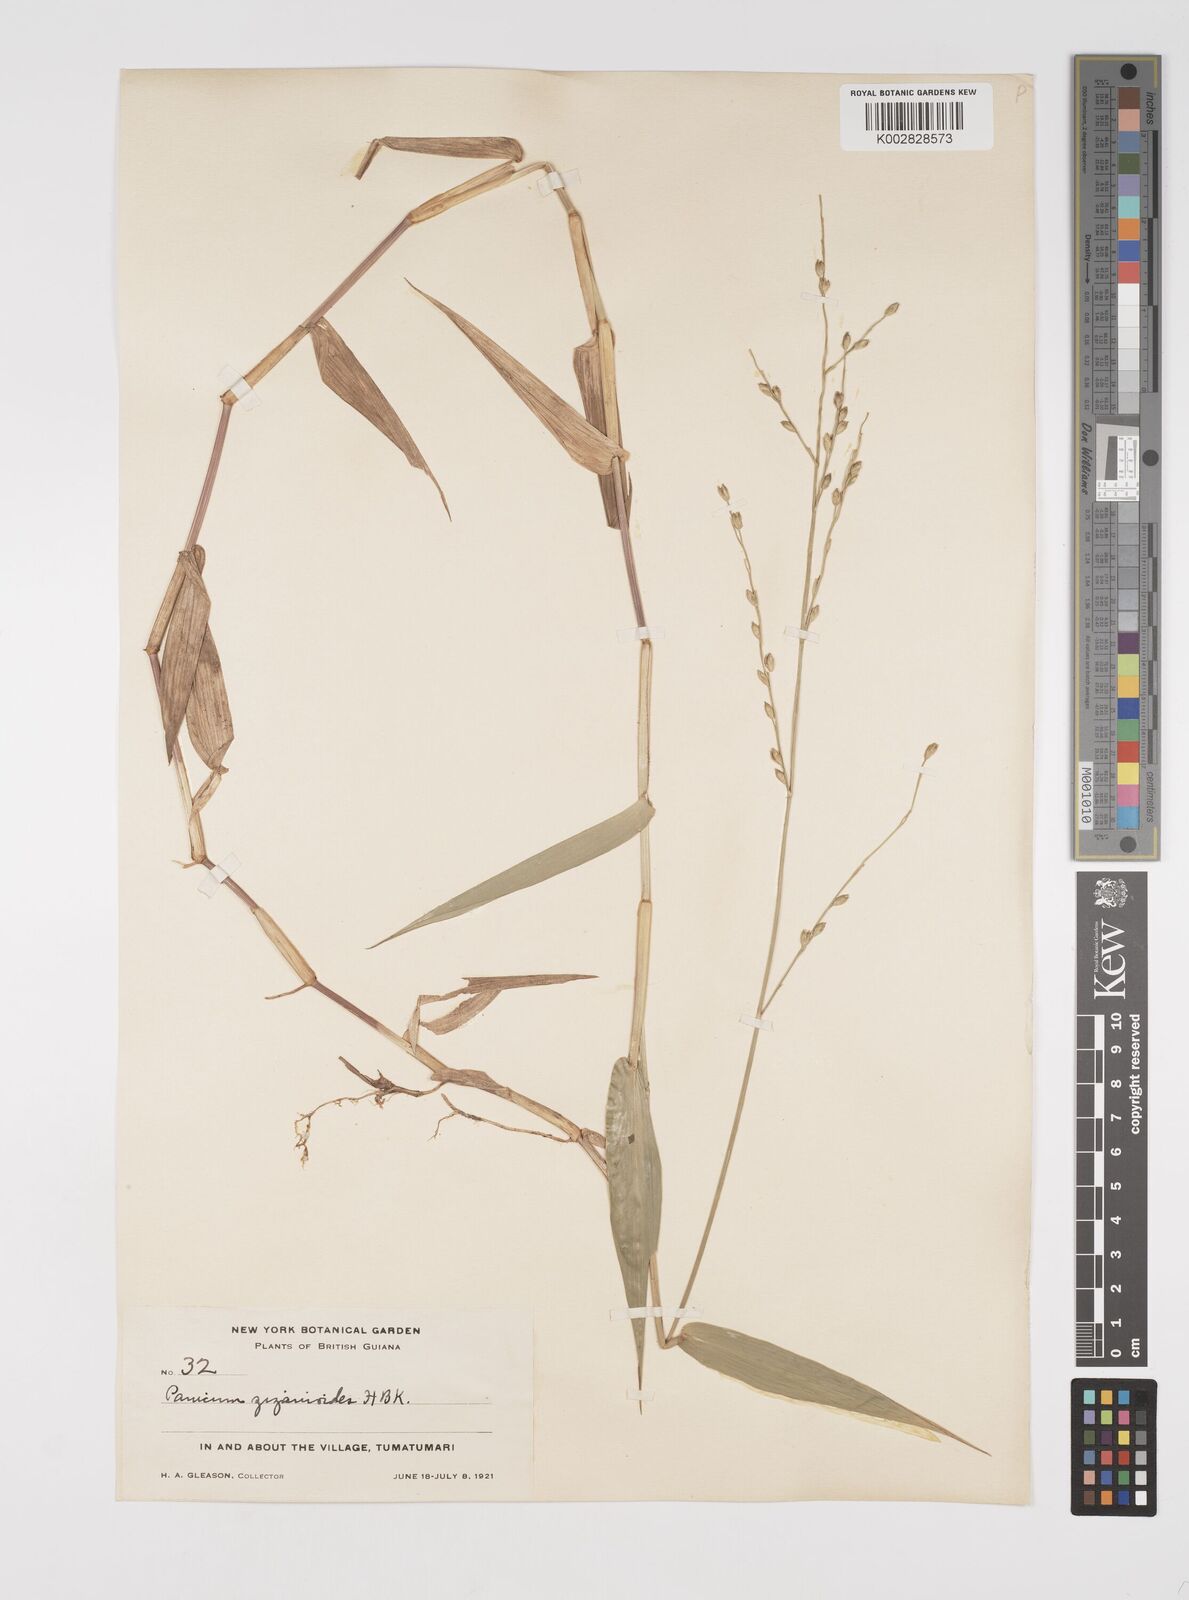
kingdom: Plantae
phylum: Tracheophyta
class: Liliopsida
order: Poales
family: Poaceae
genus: Acroceras
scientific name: Acroceras zizanioides
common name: Oat grass
